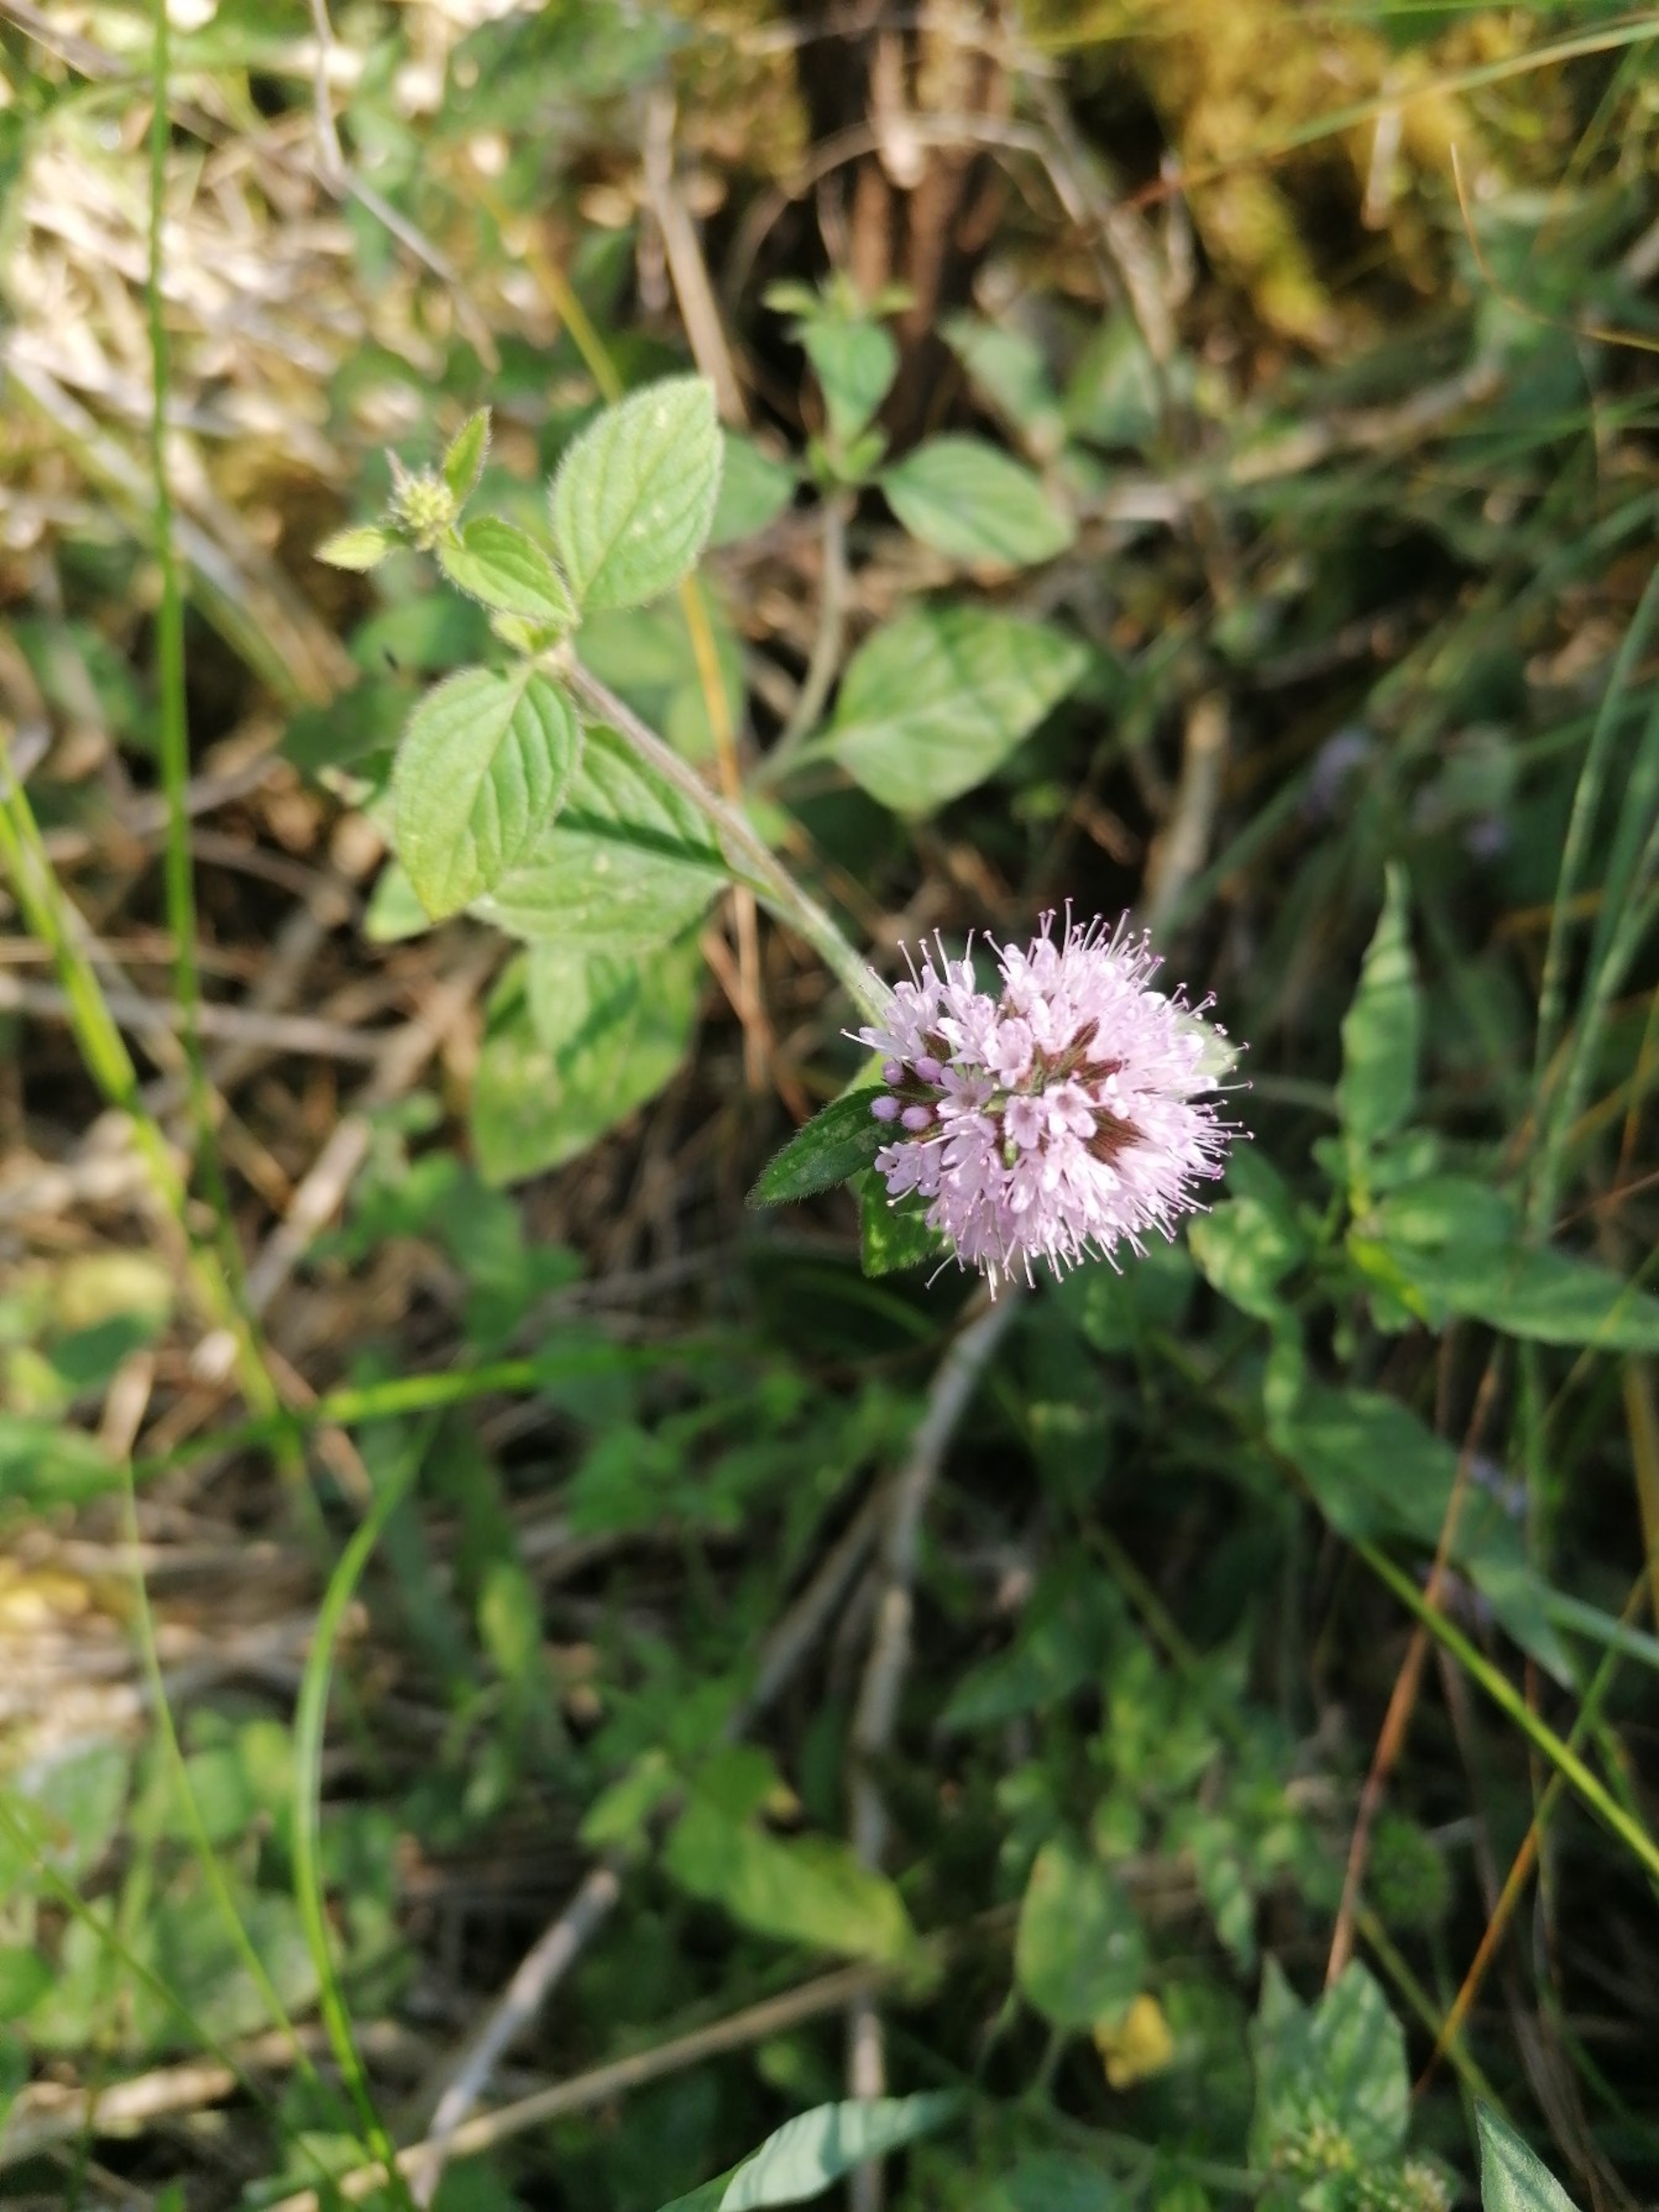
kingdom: Plantae
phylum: Tracheophyta
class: Magnoliopsida
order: Lamiales
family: Lamiaceae
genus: Mentha
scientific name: Mentha aquatica
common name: Vand-mynte
